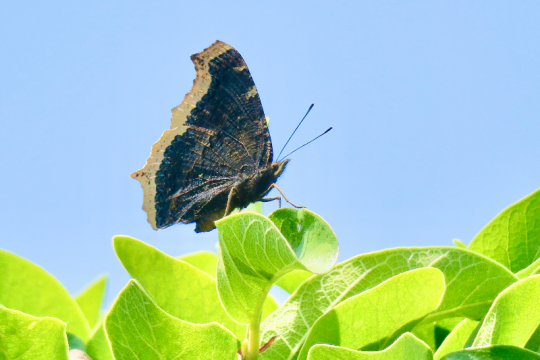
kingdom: Animalia
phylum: Arthropoda
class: Insecta
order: Lepidoptera
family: Nymphalidae
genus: Nymphalis
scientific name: Nymphalis antiopa
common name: Mourning Cloak
